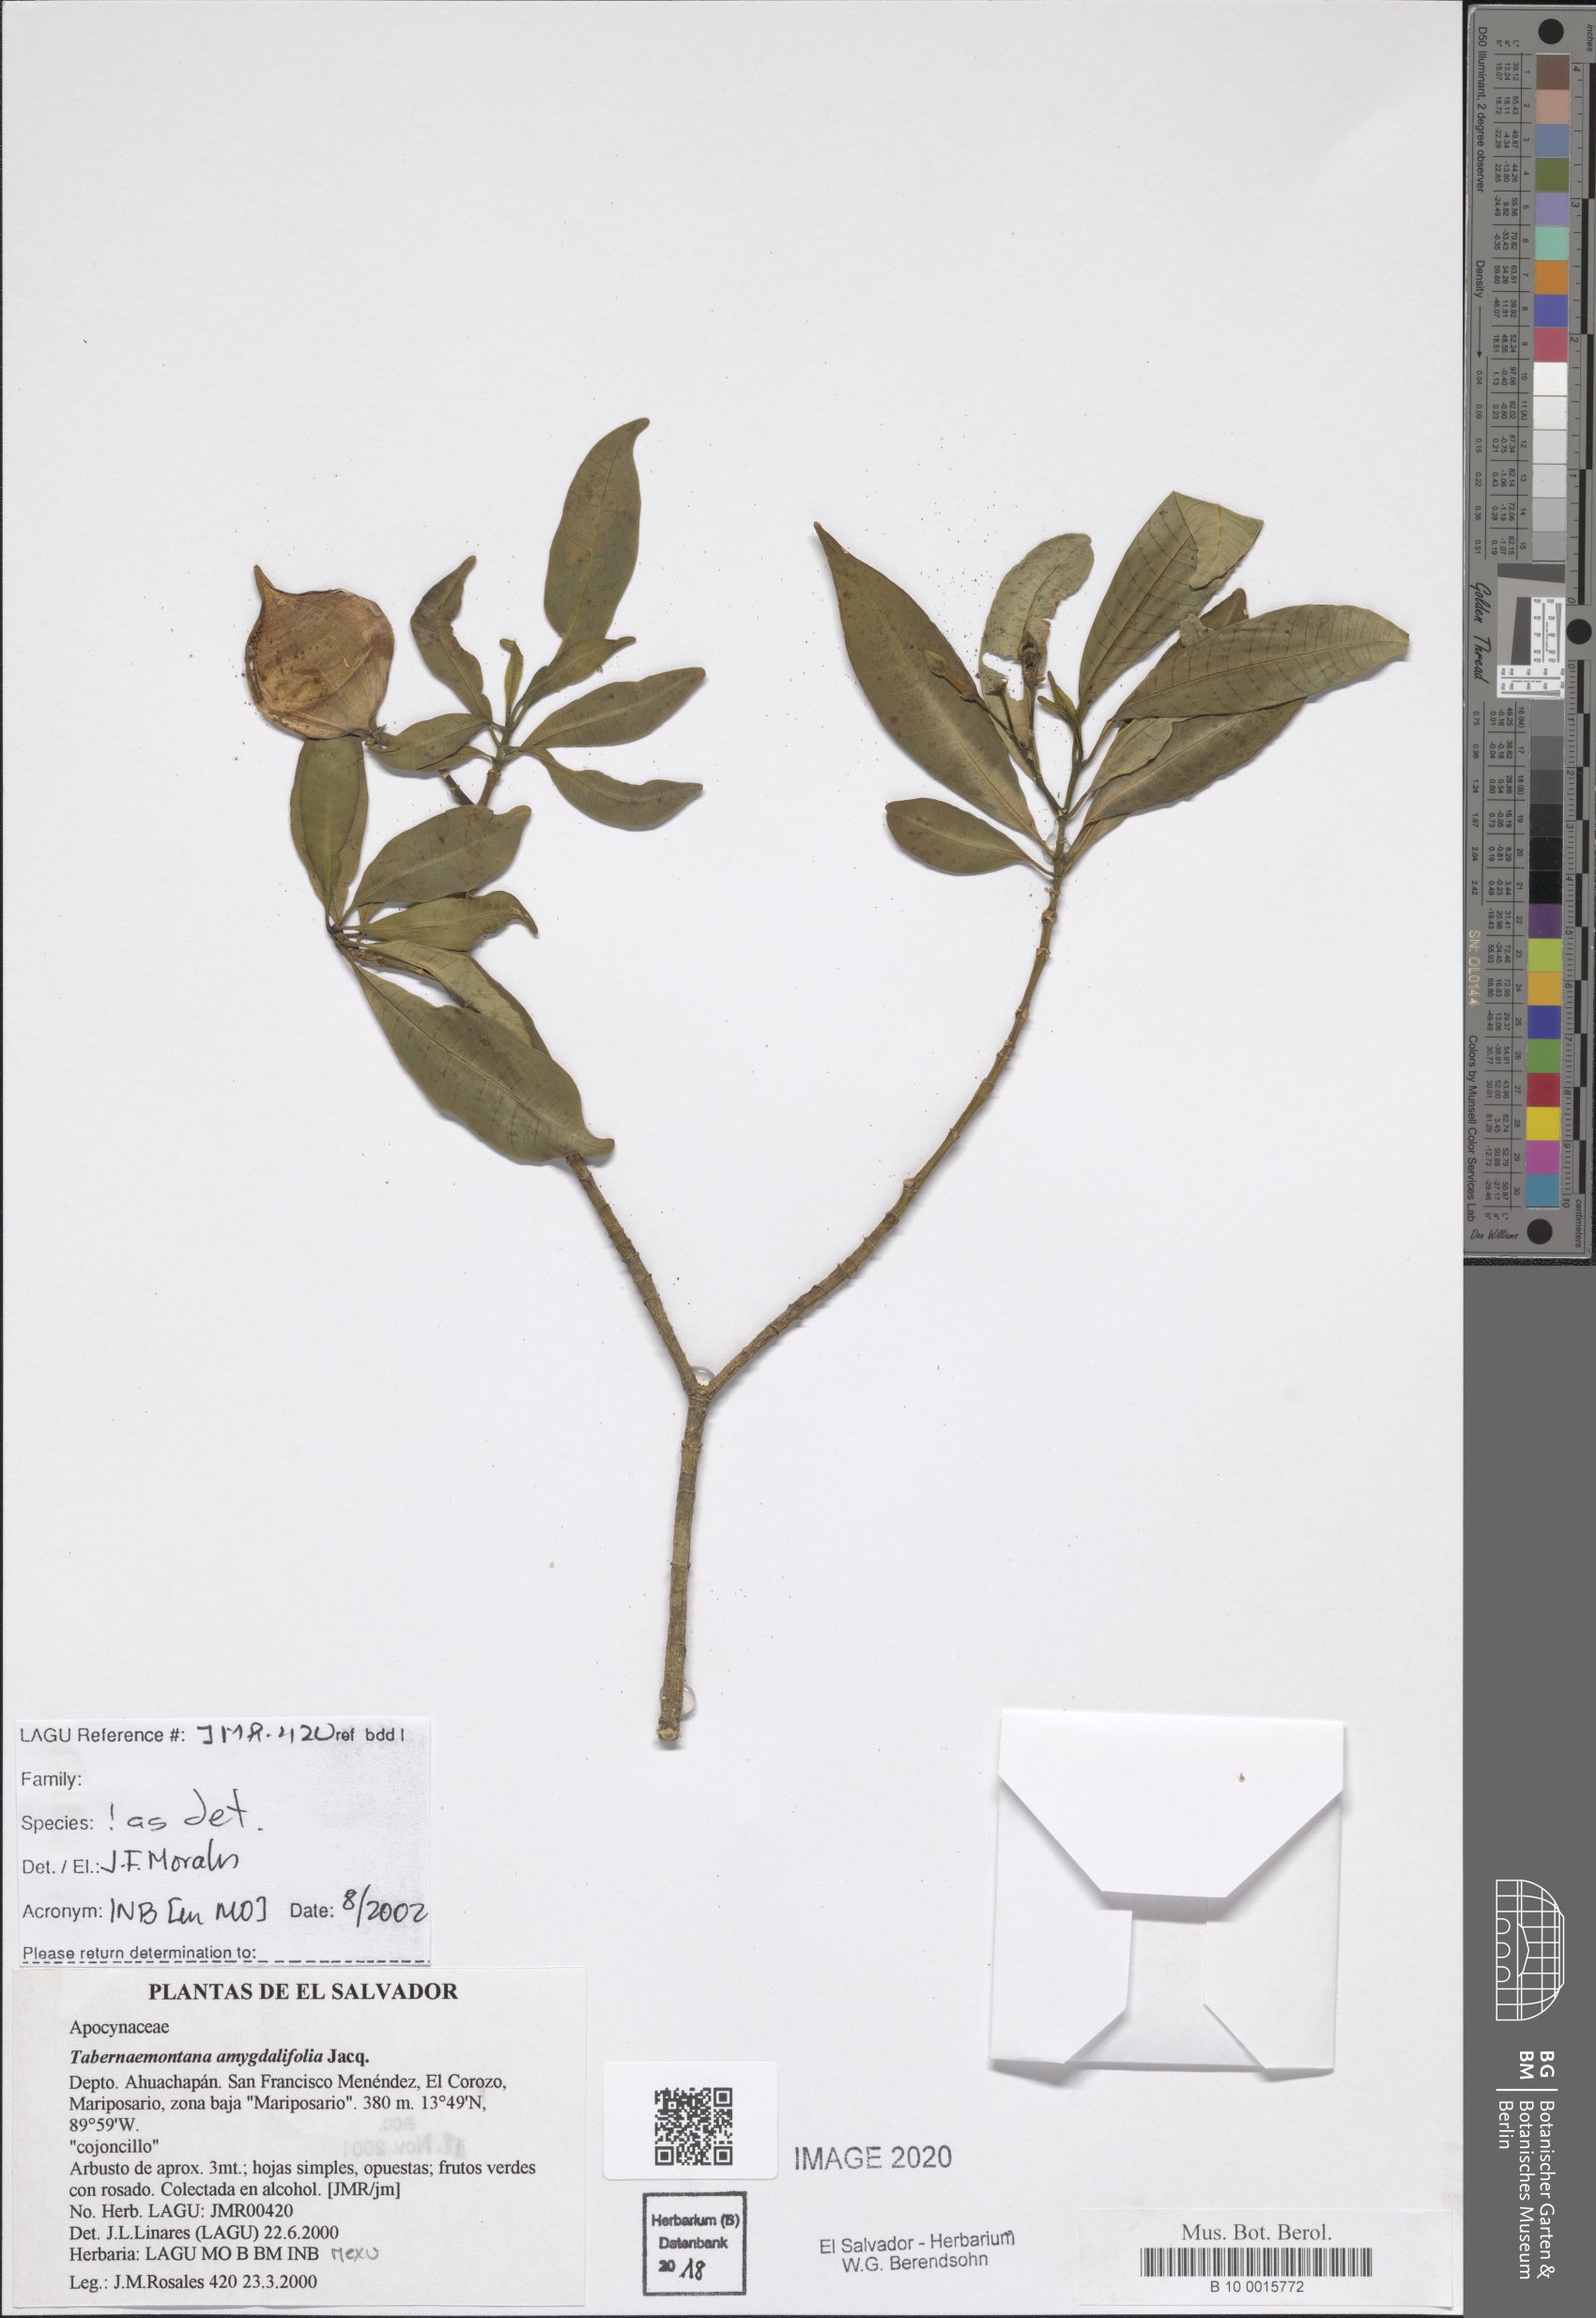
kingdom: Plantae
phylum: Tracheophyta
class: Magnoliopsida
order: Gentianales
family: Apocynaceae
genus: Tabernaemontana
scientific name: Tabernaemontana amygdalifolia
